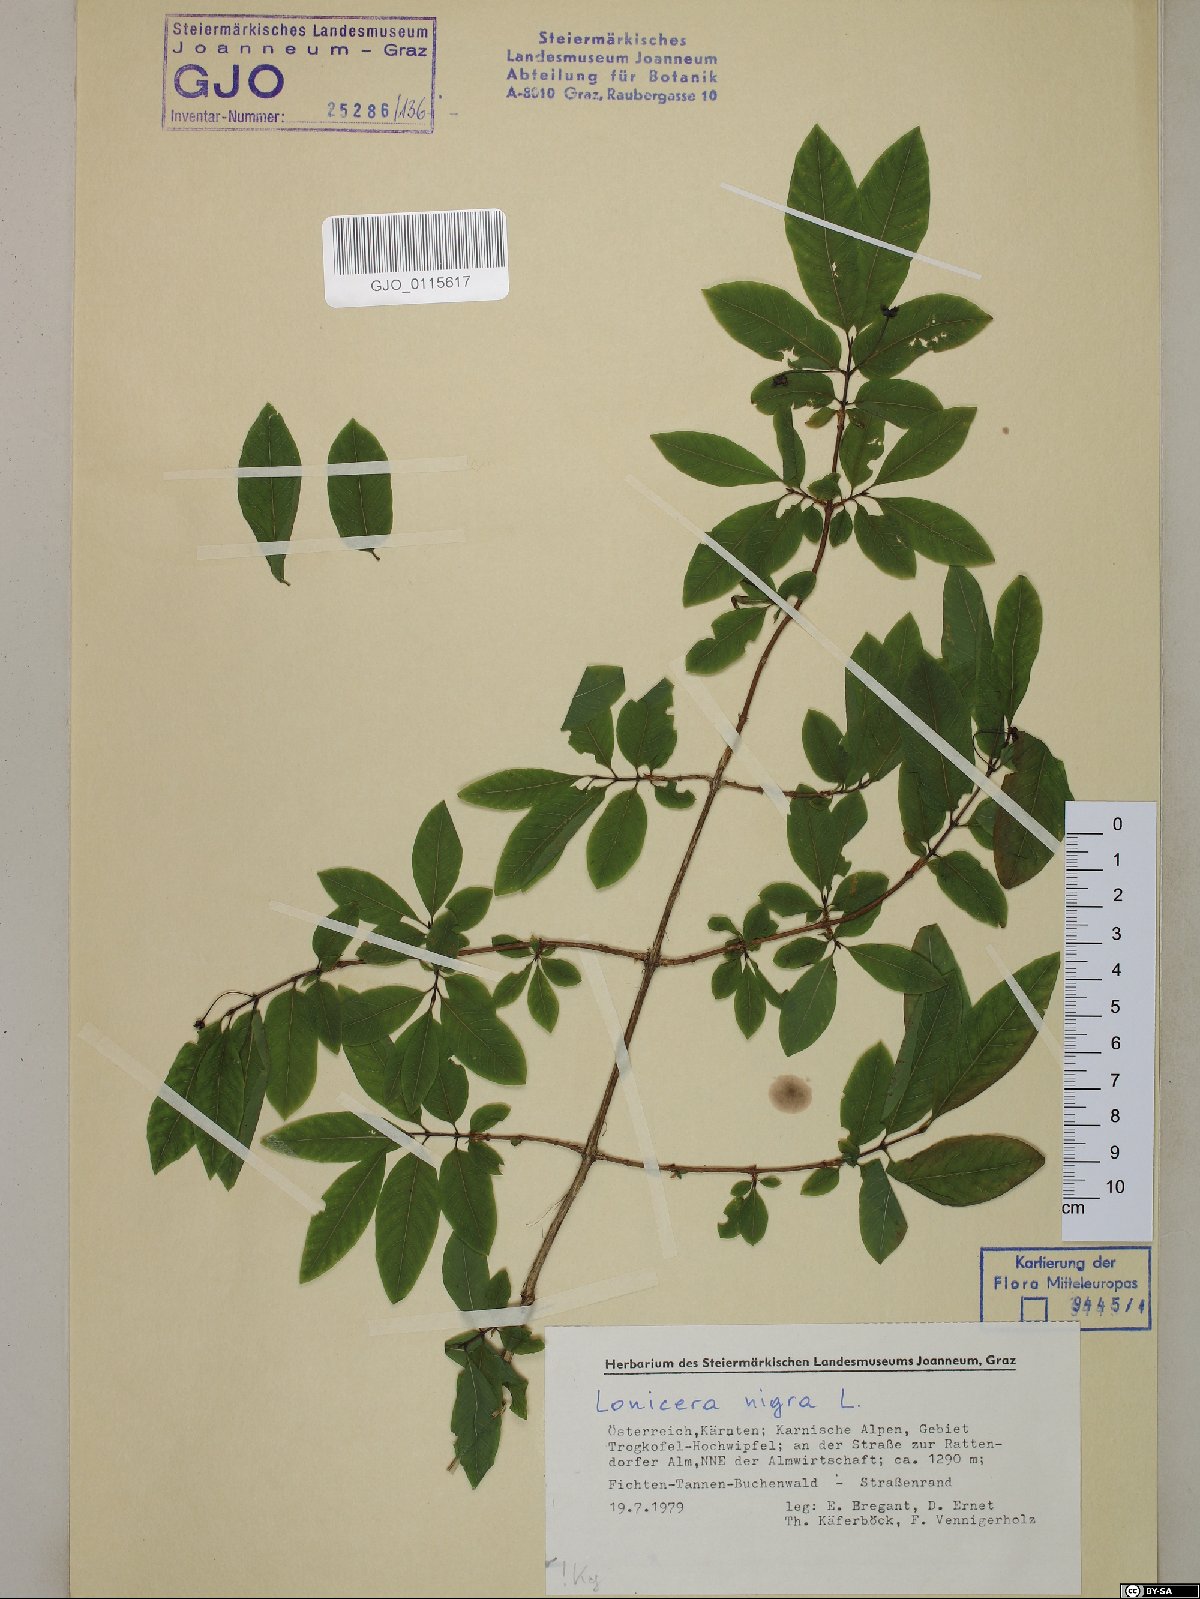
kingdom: Plantae
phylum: Tracheophyta
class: Magnoliopsida
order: Dipsacales
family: Caprifoliaceae
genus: Lonicera
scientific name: Lonicera nigra
